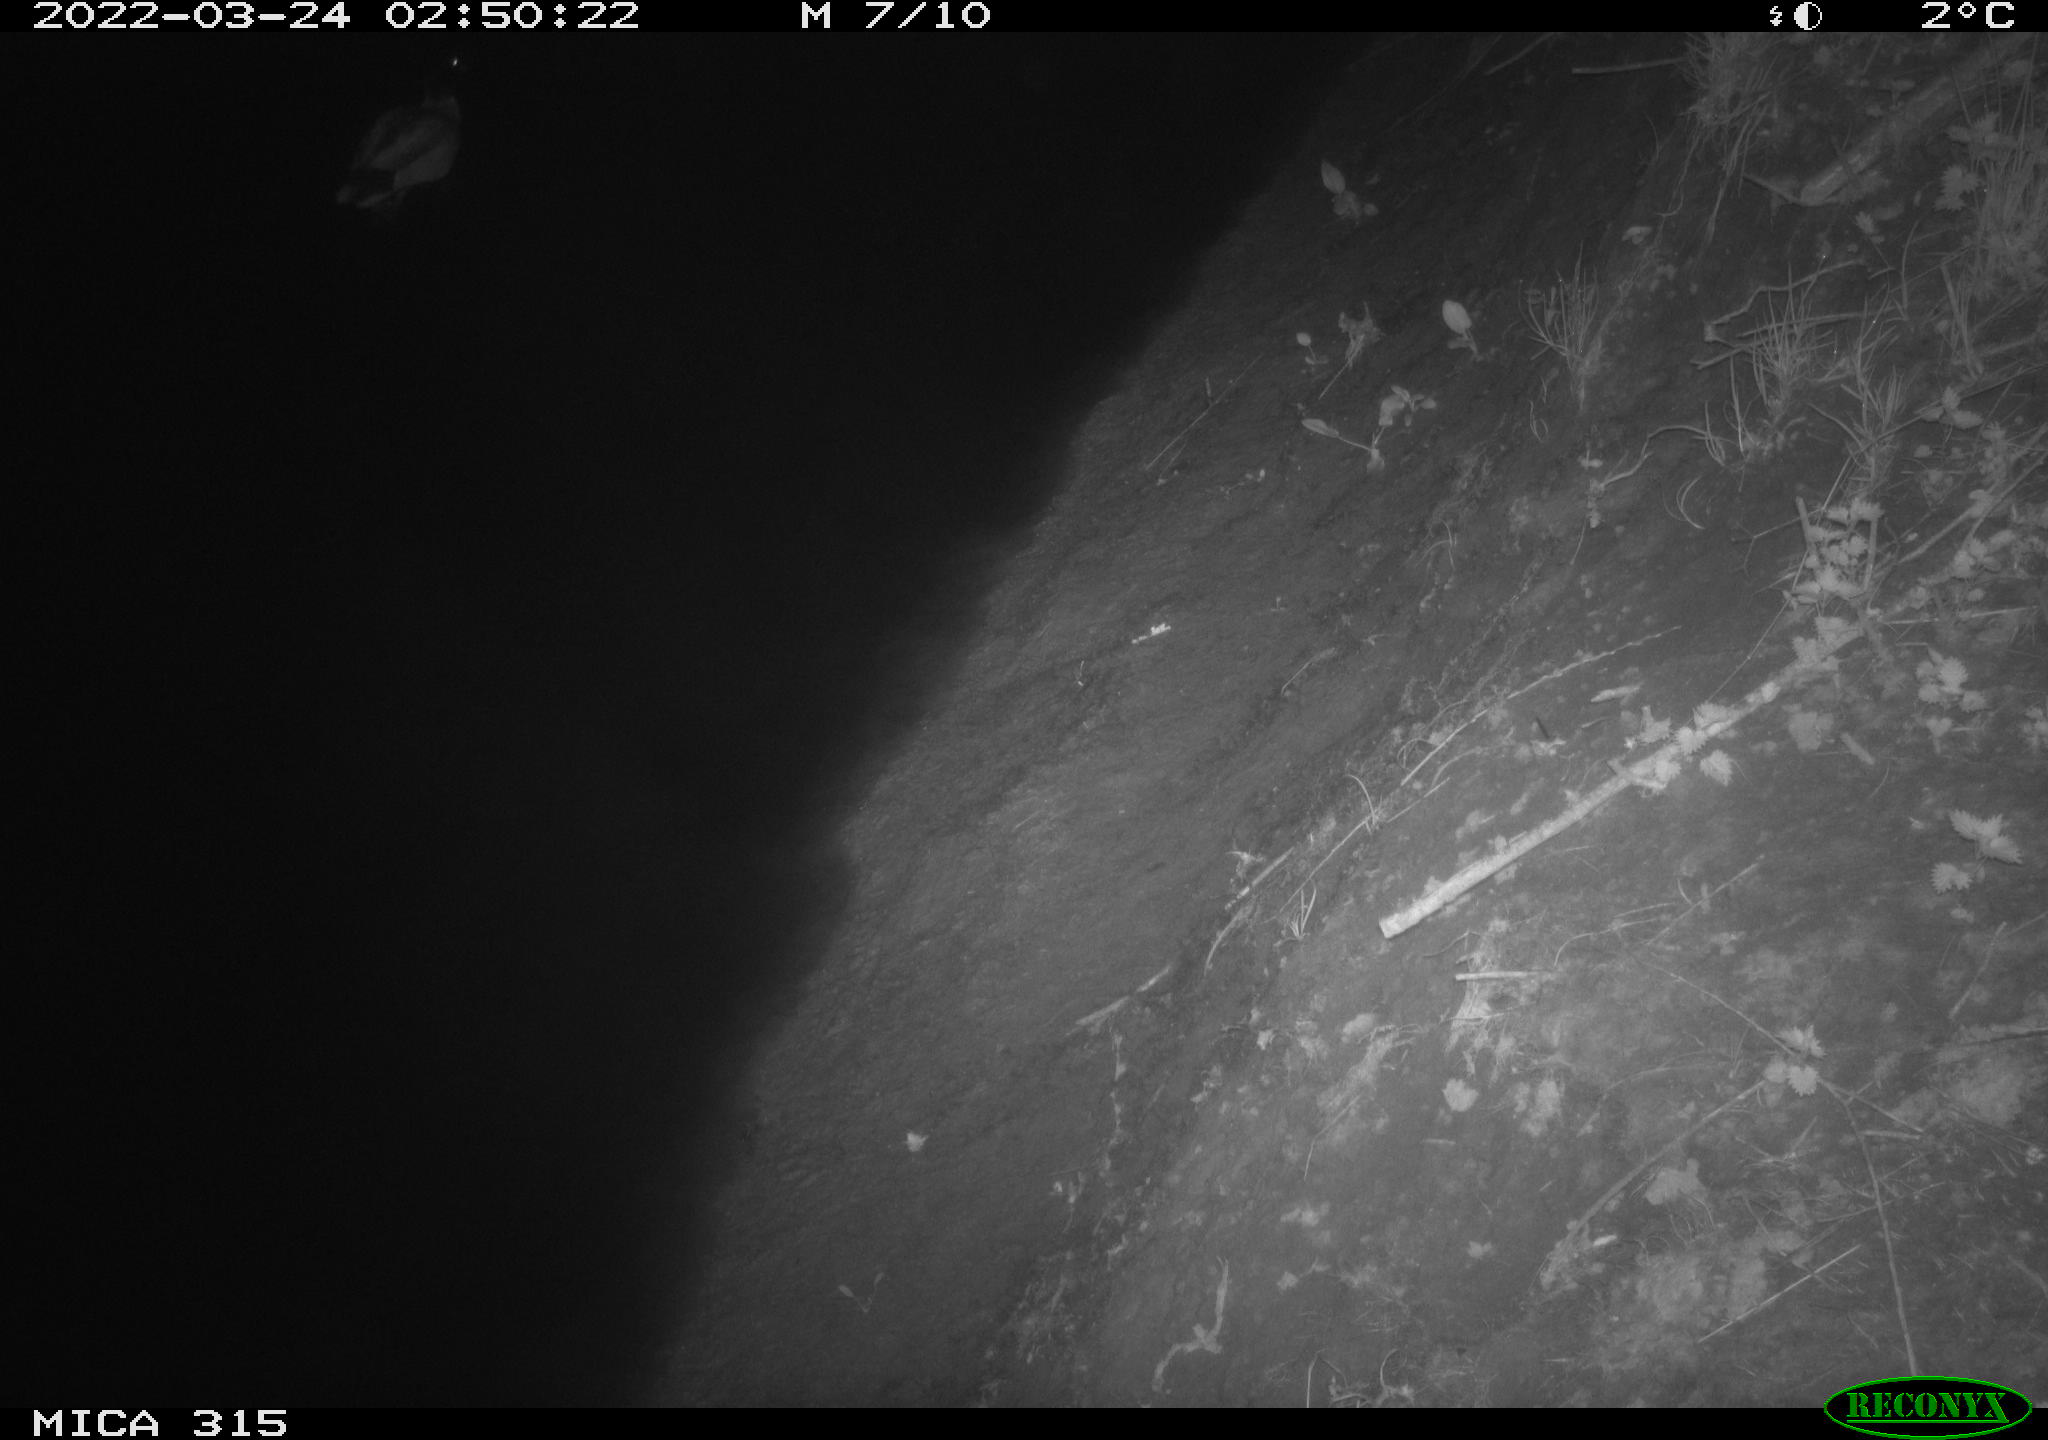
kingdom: Animalia
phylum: Chordata
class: Aves
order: Anseriformes
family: Anatidae
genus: Anas
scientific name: Anas platyrhynchos
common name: Mallard
